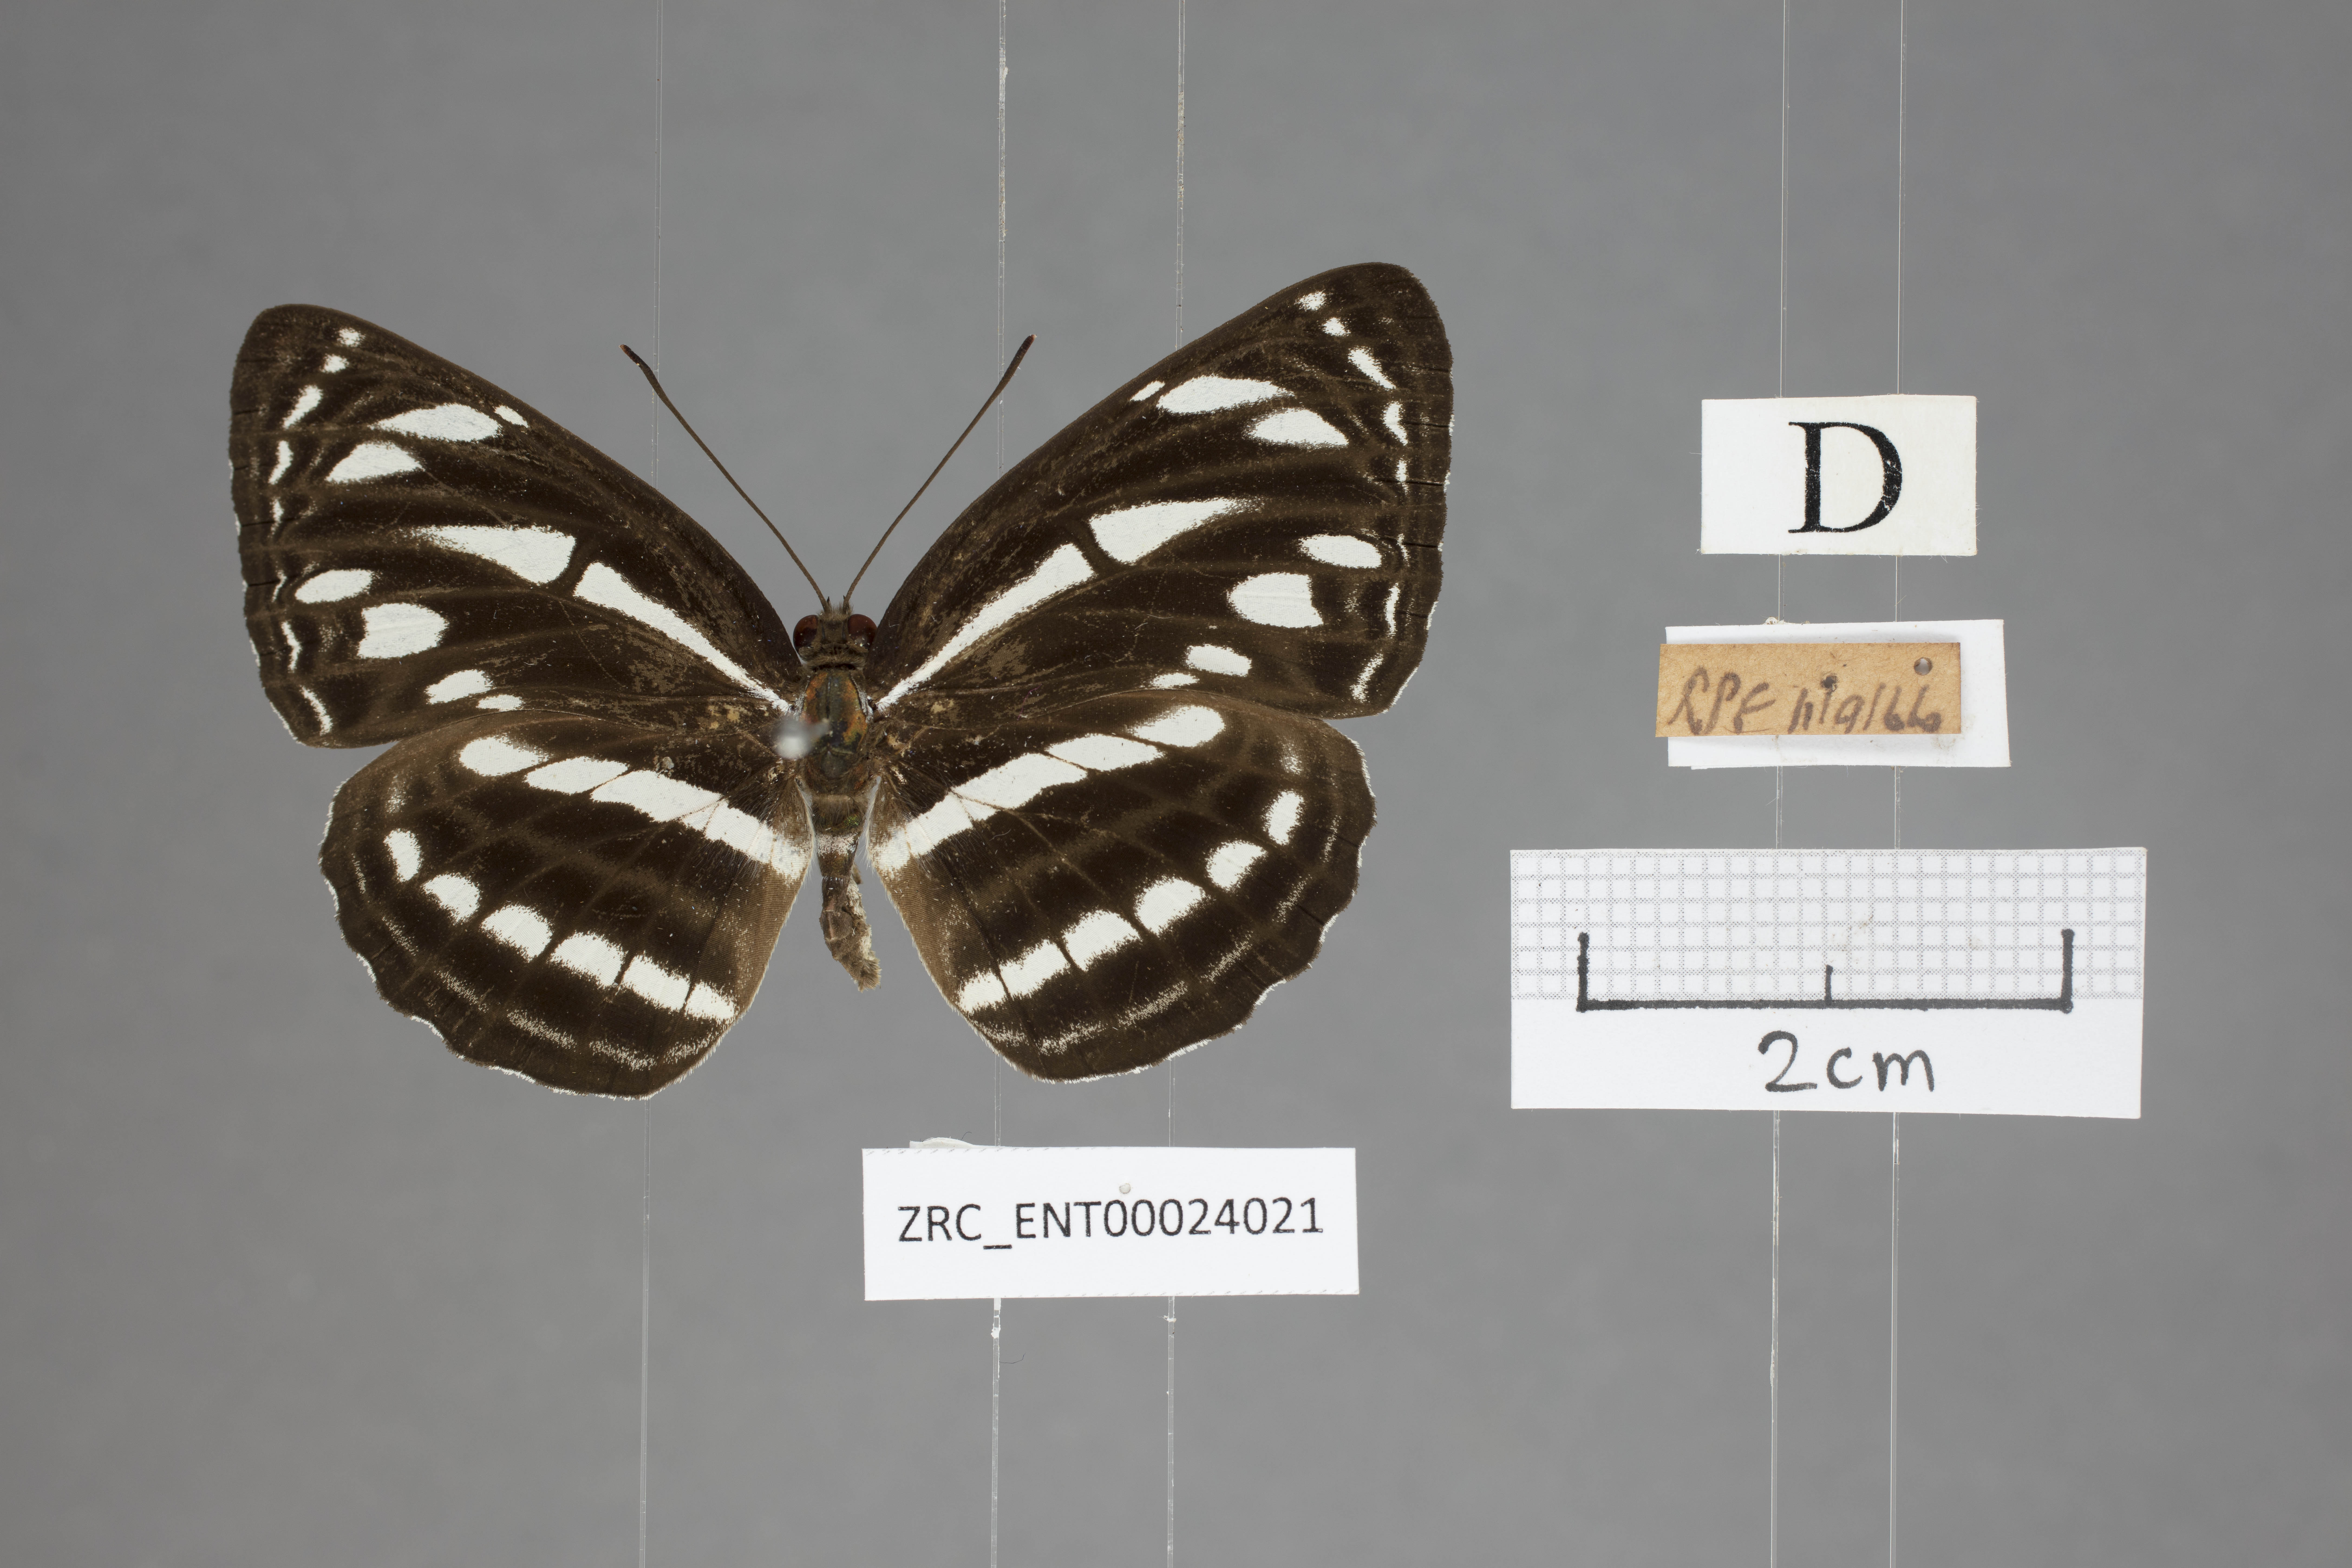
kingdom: Animalia
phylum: Arthropoda
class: Insecta
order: Lepidoptera
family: Nymphalidae
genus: Neptis
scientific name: Neptis leucoporus
